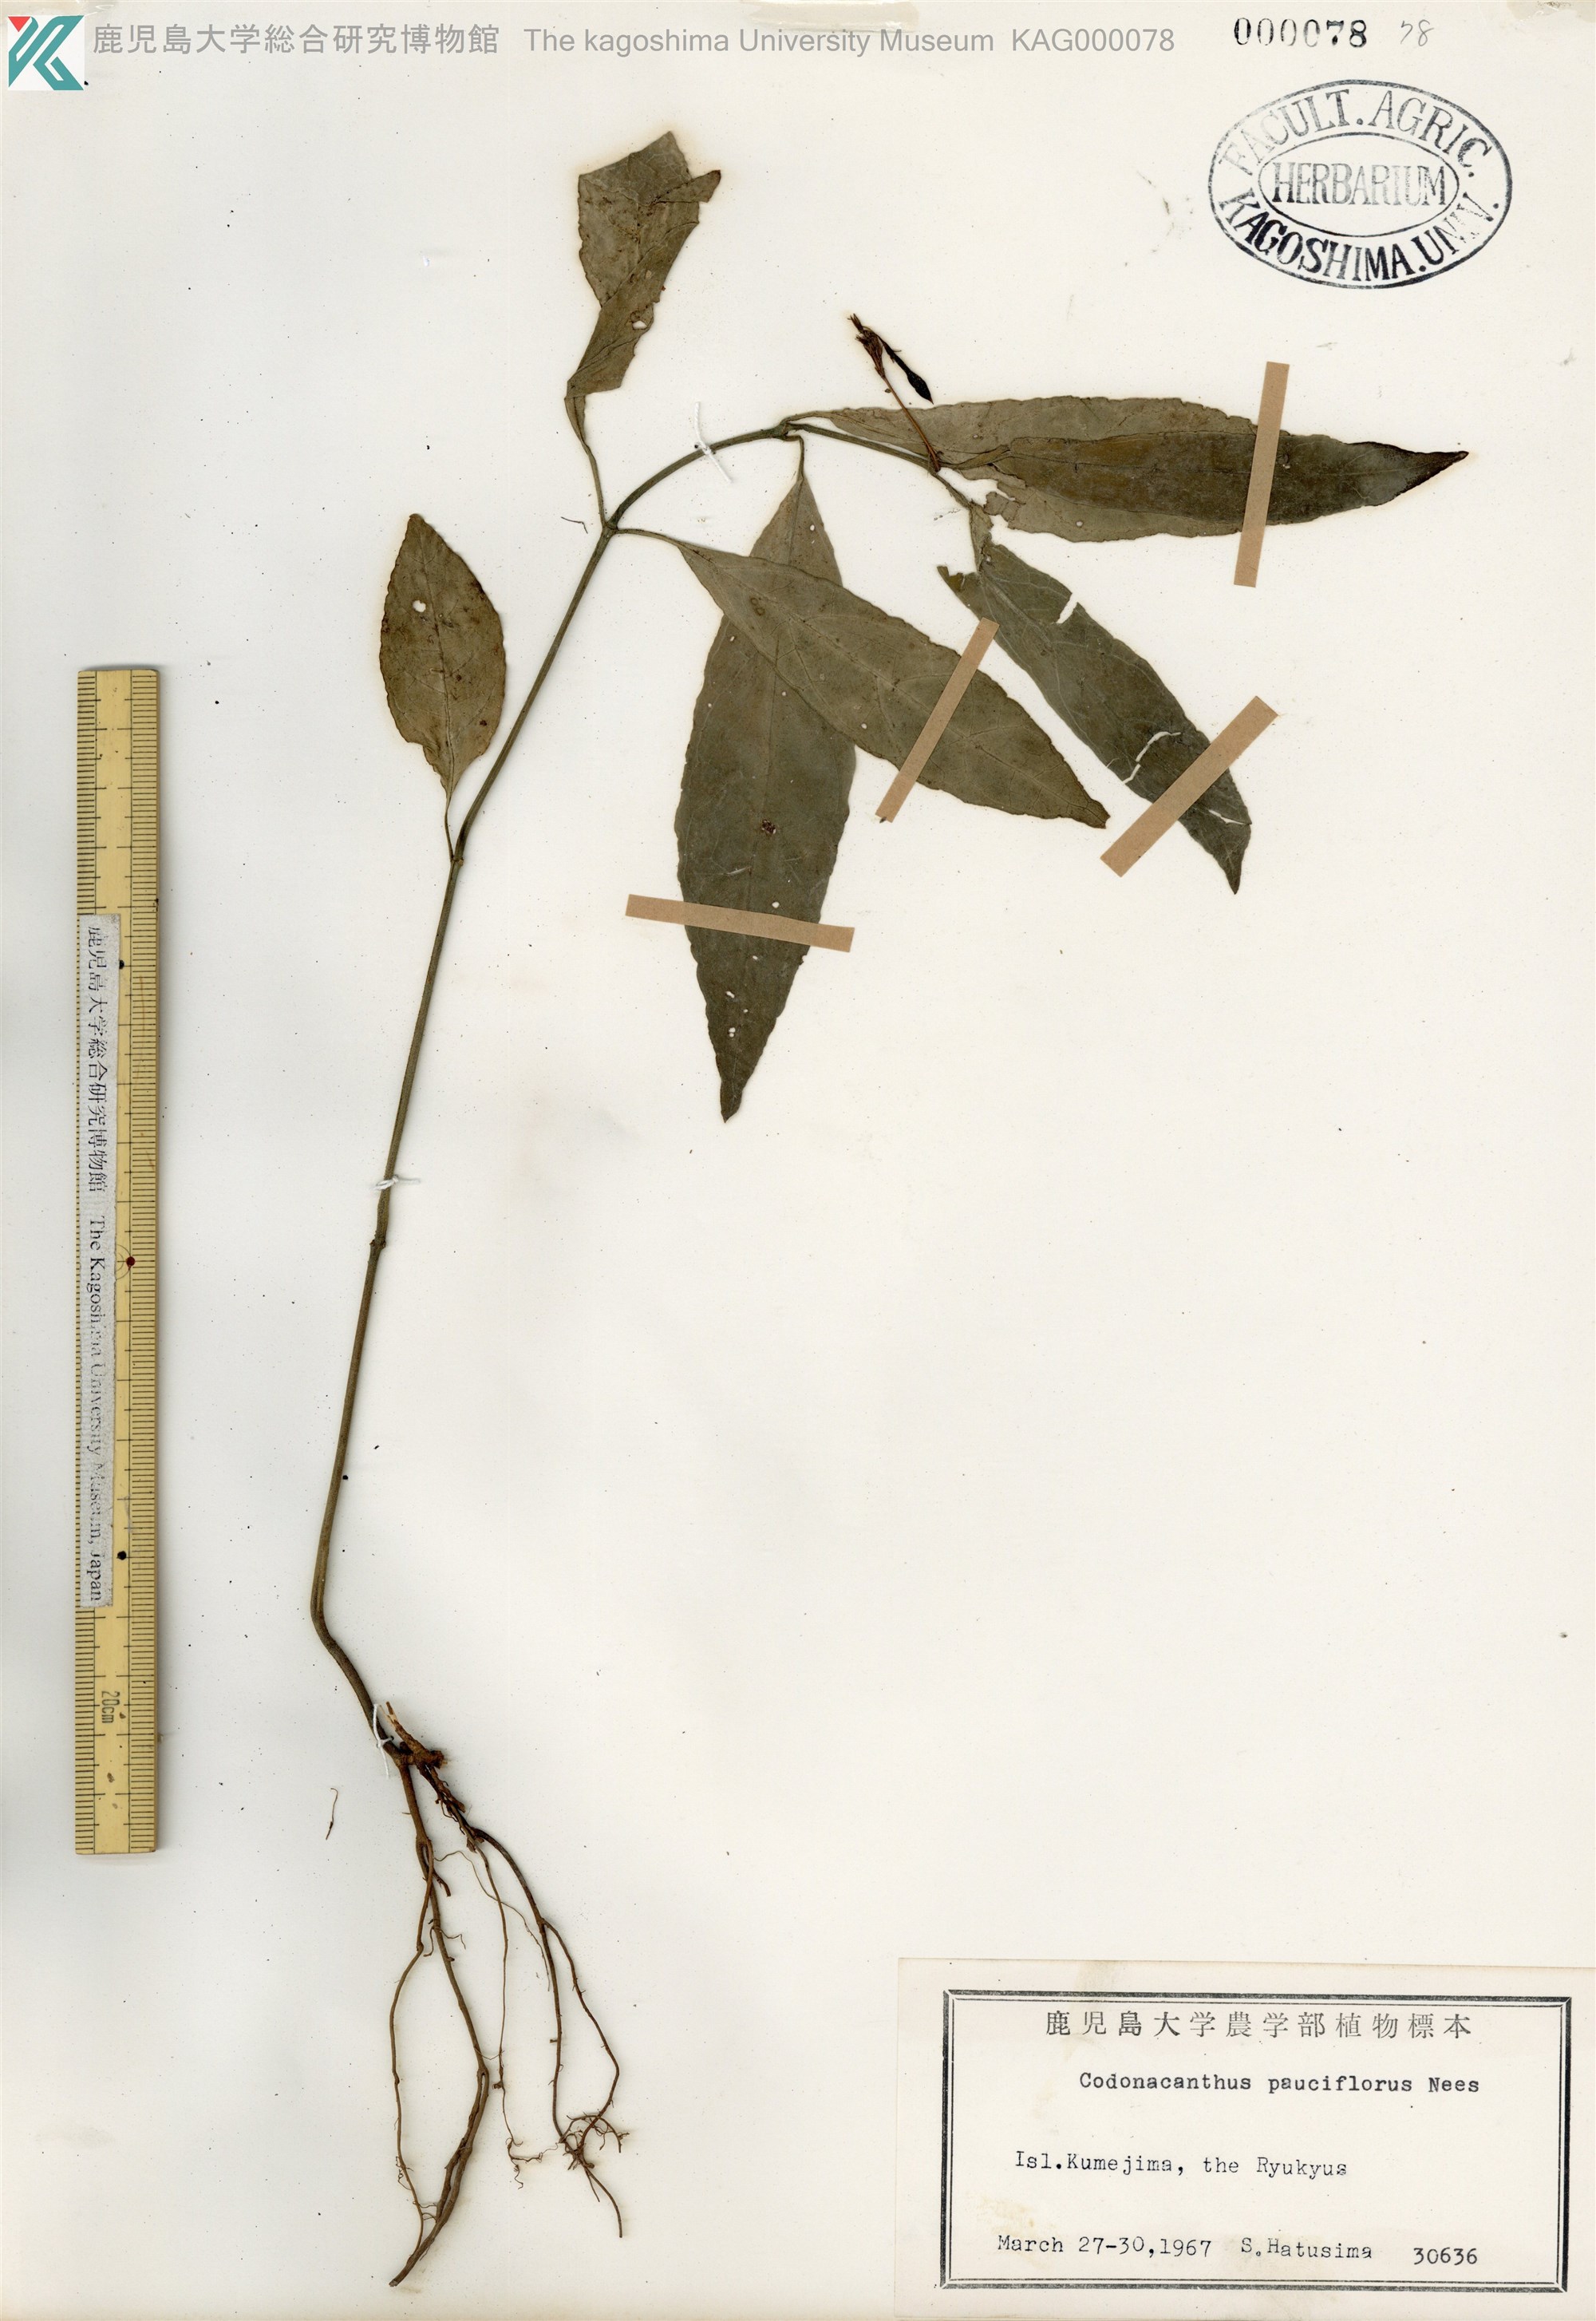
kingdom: Plantae
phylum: Tracheophyta
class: Magnoliopsida
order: Lamiales
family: Acanthaceae
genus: Codonacanthus
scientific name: Codonacanthus pauciflorus
